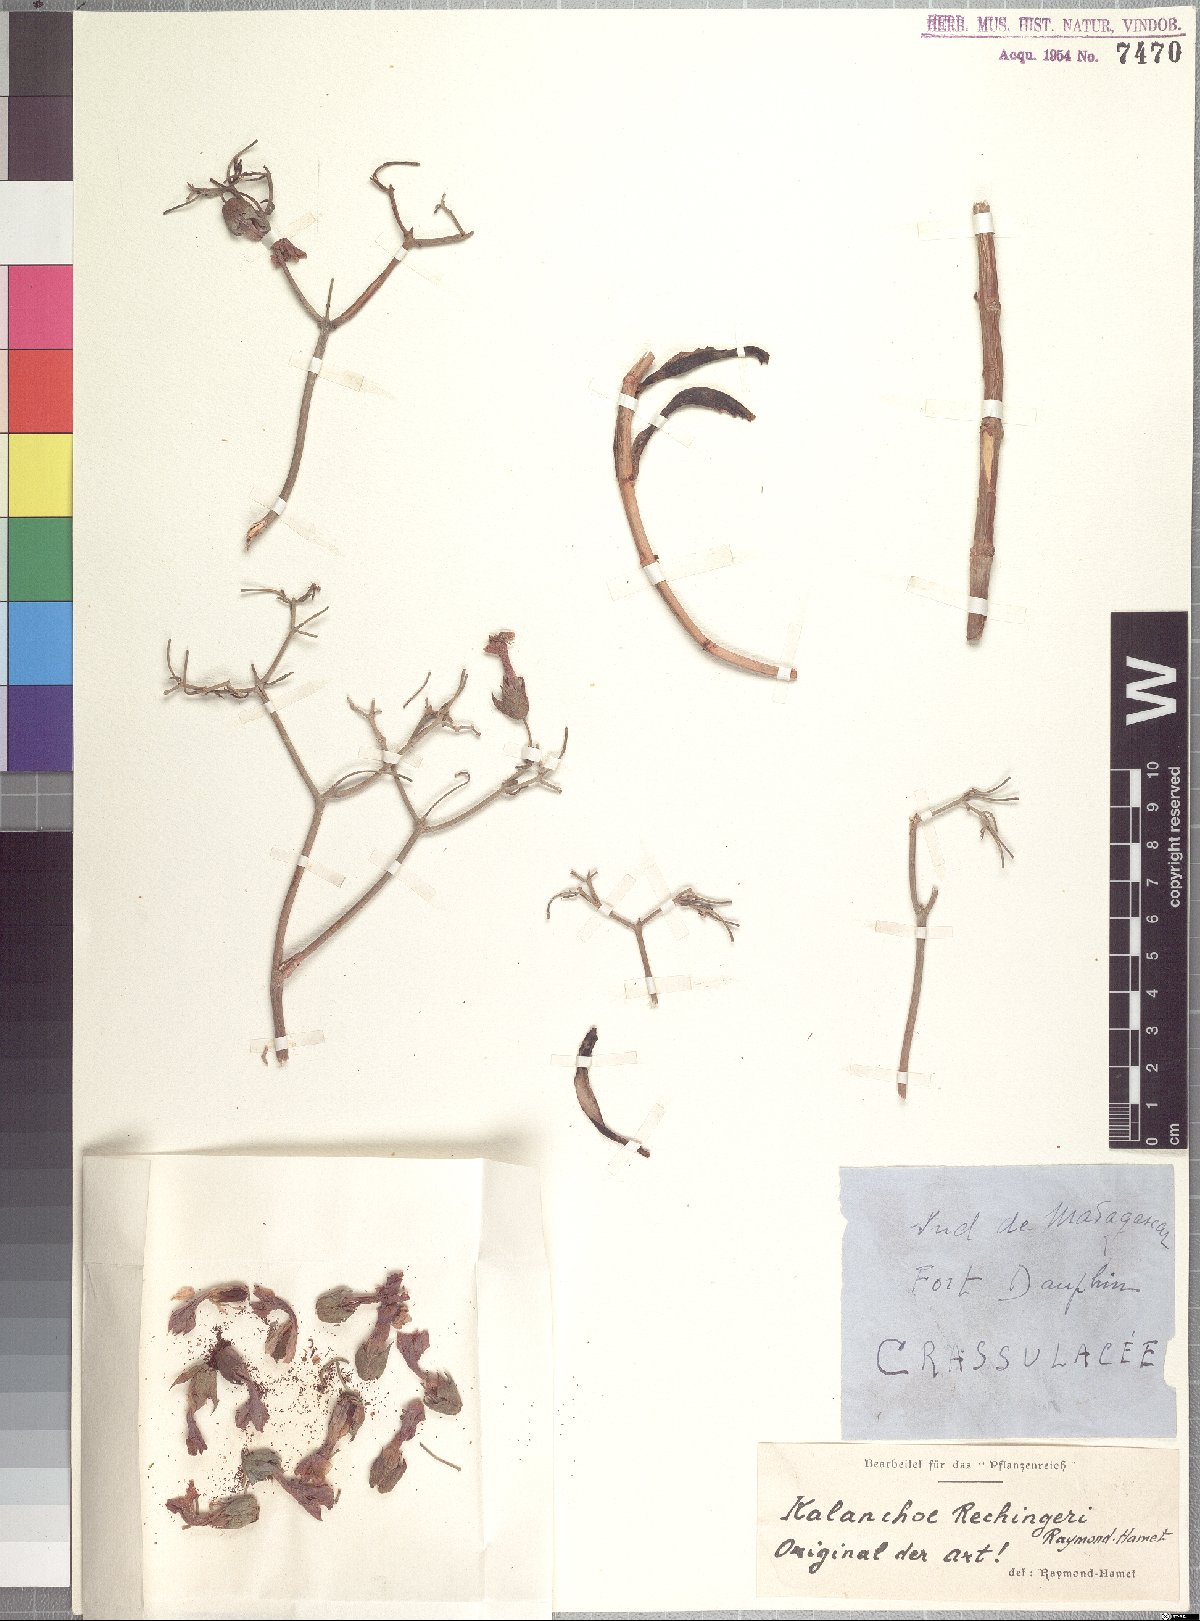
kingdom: Plantae
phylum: Tracheophyta
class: Magnoliopsida
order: Saxifragales
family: Crassulaceae
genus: Kalanchoe
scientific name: Kalanchoe beauverdii
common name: Beauverd's widow's-thrill
